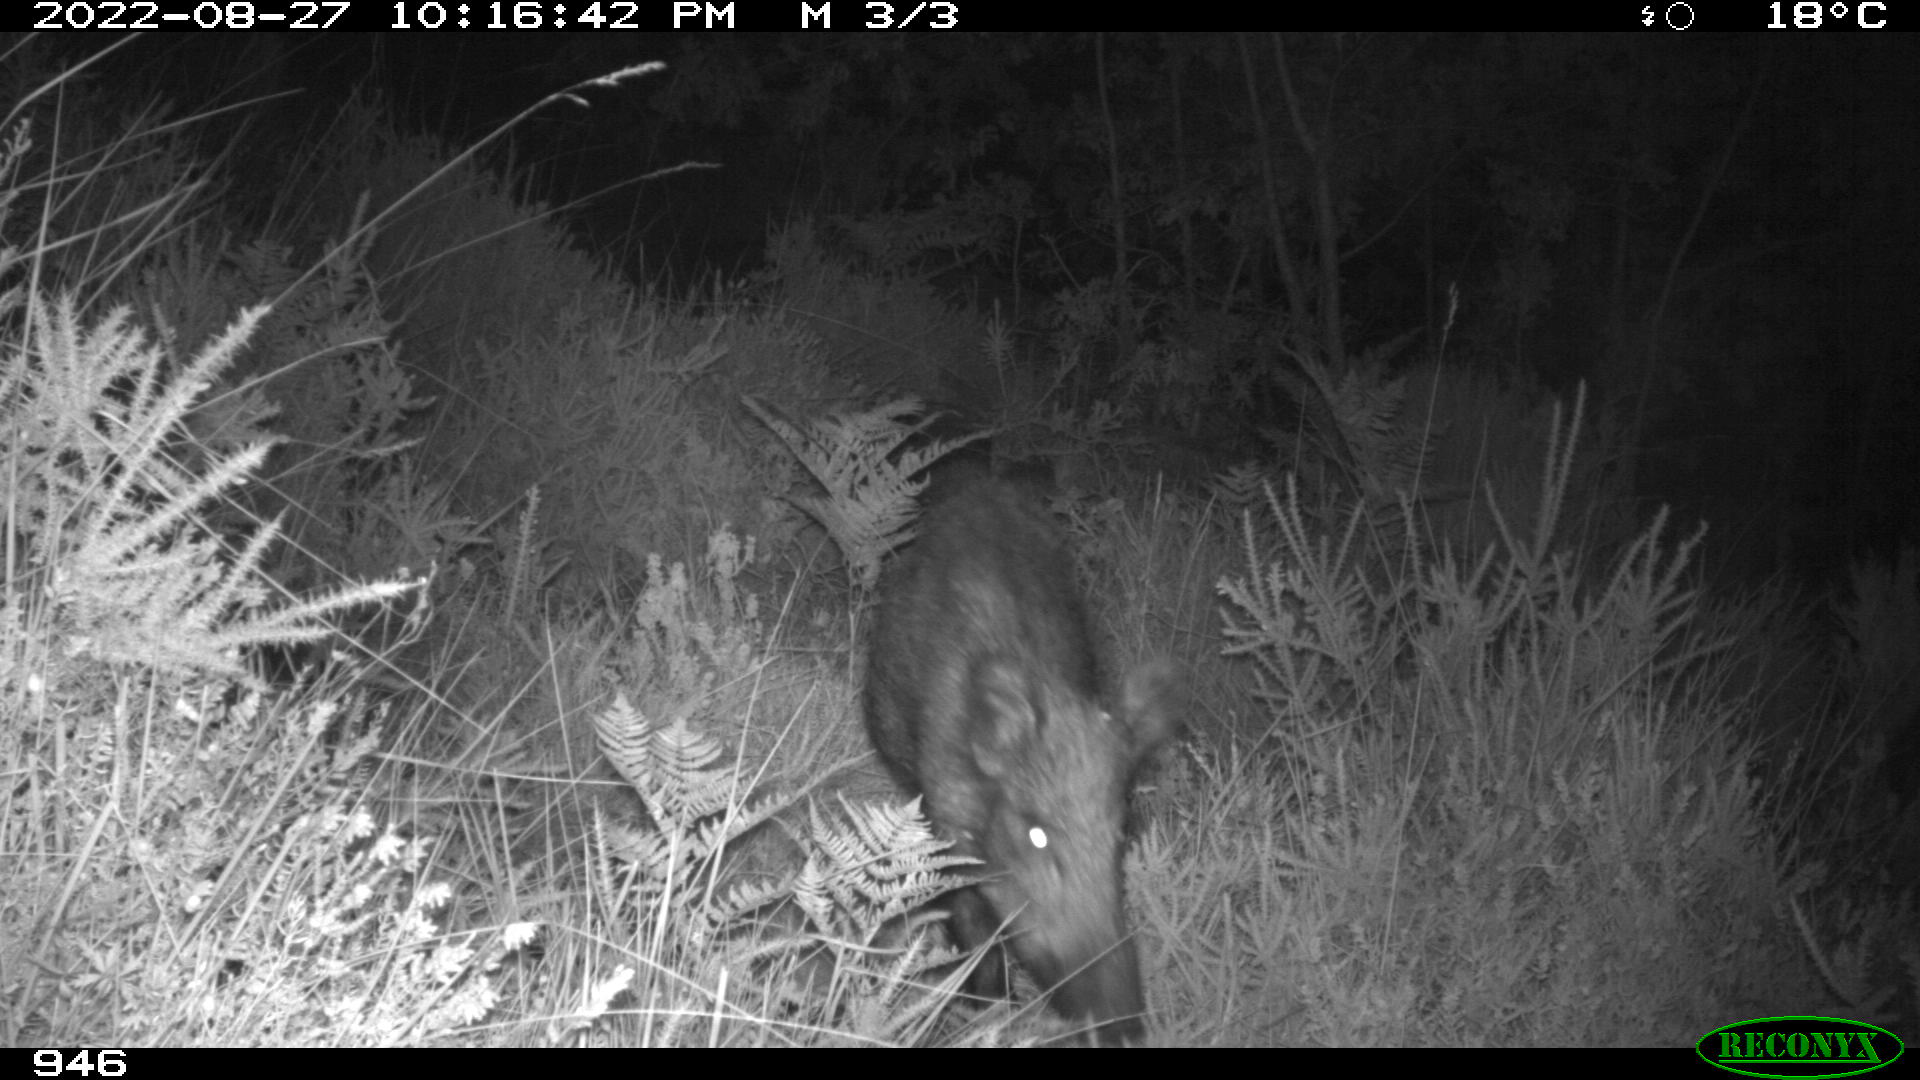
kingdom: Animalia
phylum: Chordata
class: Mammalia
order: Artiodactyla
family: Suidae
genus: Sus
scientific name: Sus scrofa
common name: Wild boar
